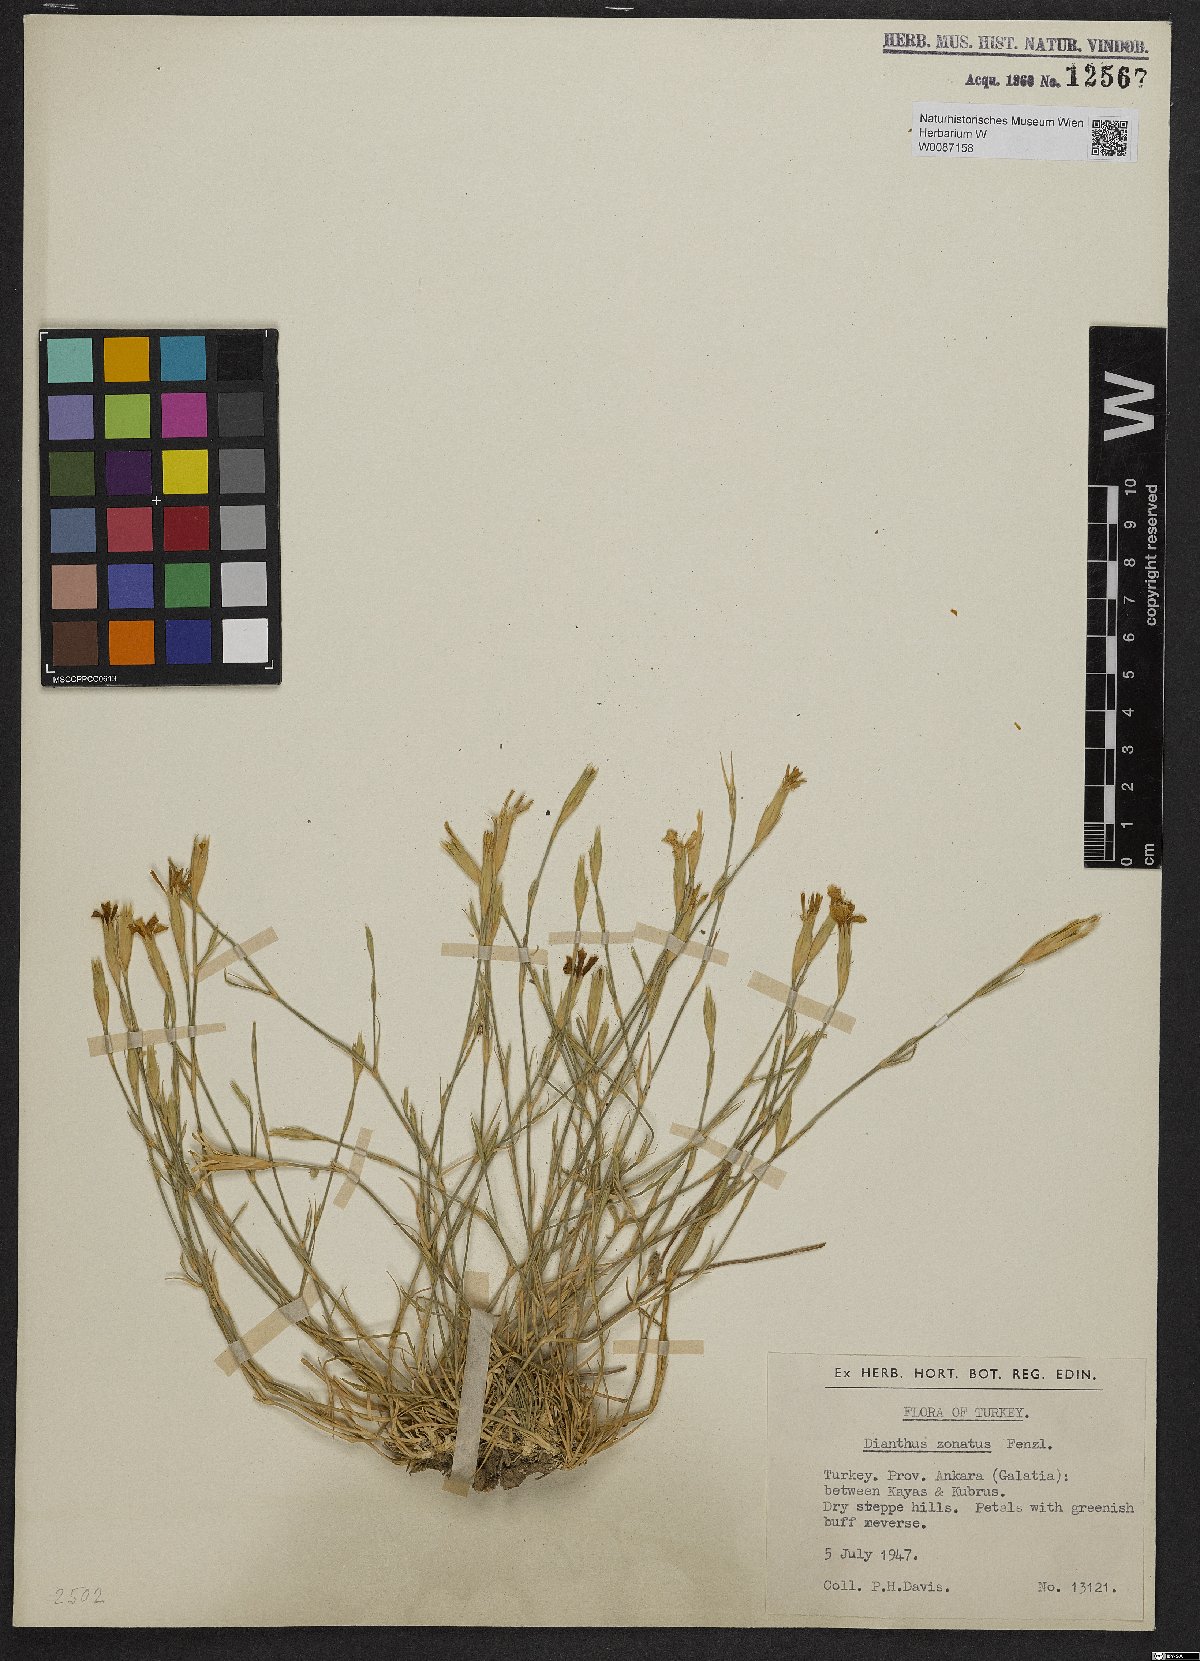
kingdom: Plantae
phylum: Tracheophyta
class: Magnoliopsida
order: Caryophyllales
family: Caryophyllaceae
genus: Dianthus
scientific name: Dianthus zonatus
